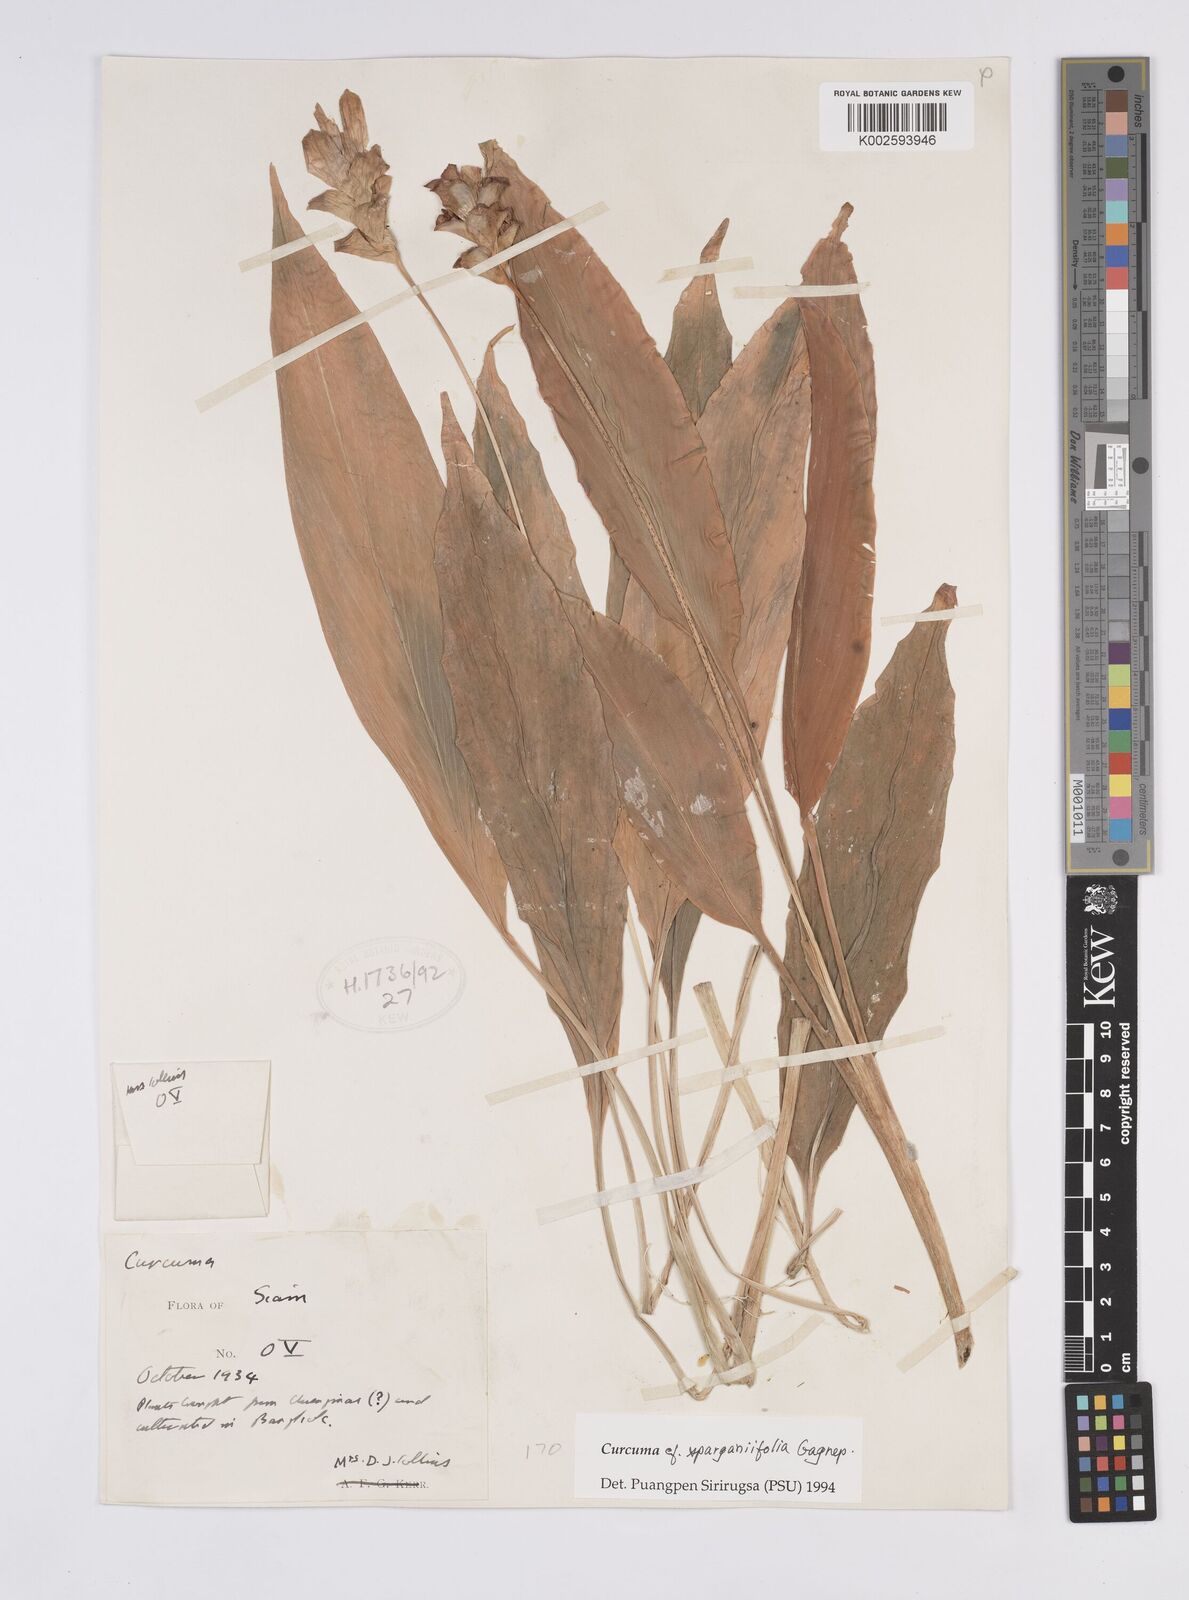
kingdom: Plantae
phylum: Tracheophyta
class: Liliopsida
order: Zingiberales
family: Zingiberaceae
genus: Curcuma
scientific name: Curcuma sparganiifolia
